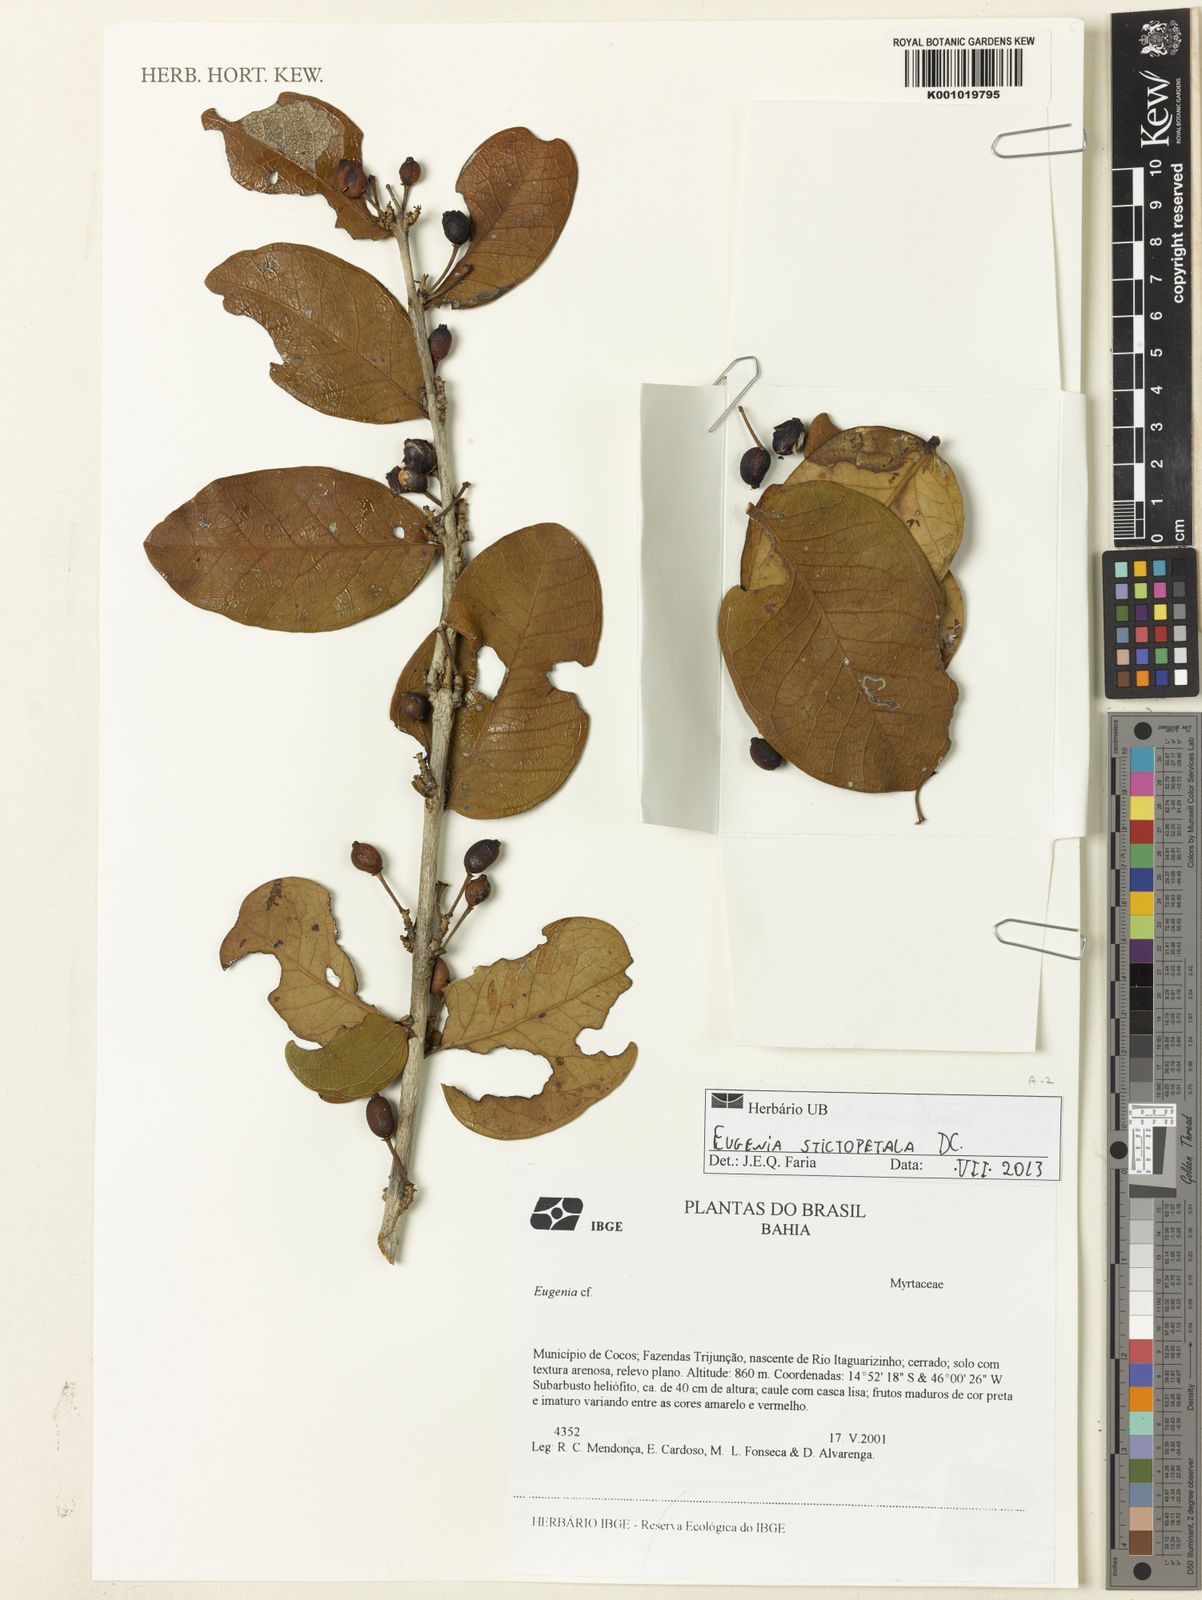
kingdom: Plantae
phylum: Tracheophyta
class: Magnoliopsida
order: Myrtales
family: Myrtaceae
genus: Eugenia
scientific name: Eugenia stictopetala
